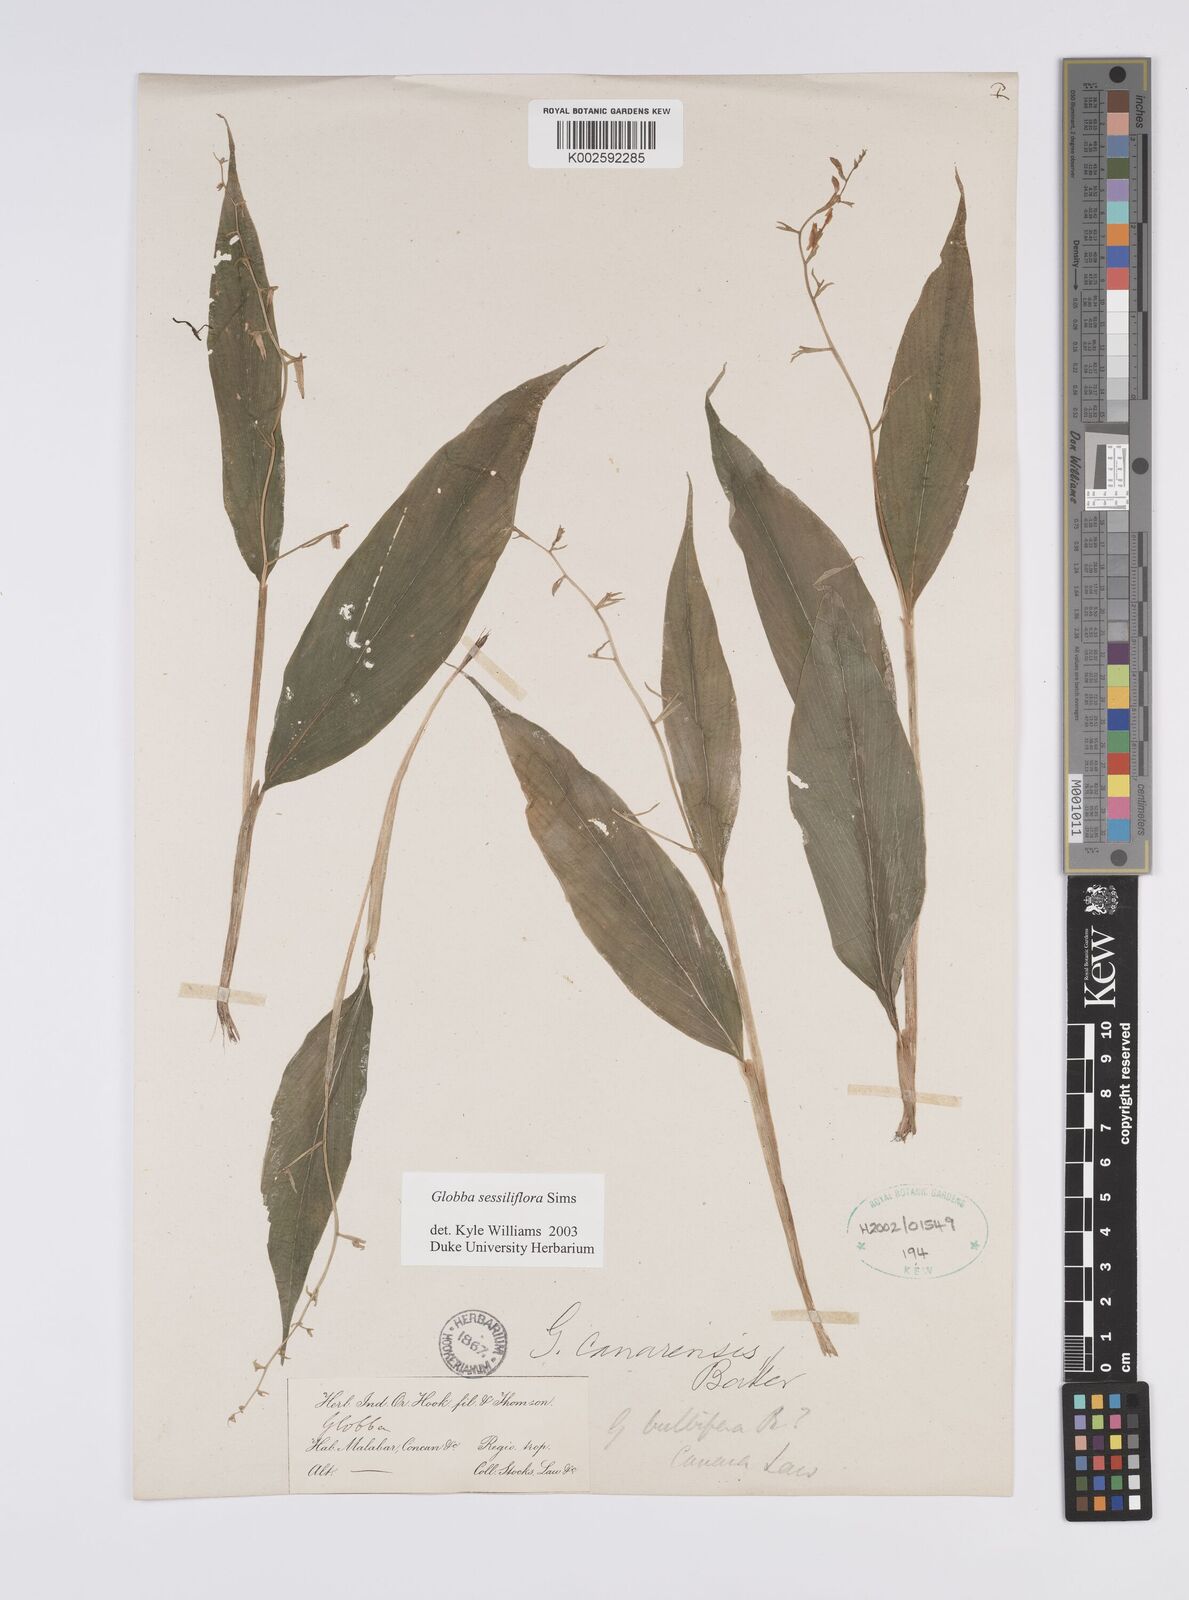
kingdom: Plantae
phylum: Tracheophyta
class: Liliopsida
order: Zingiberales
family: Zingiberaceae
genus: Globba
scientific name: Globba sessiliflora
